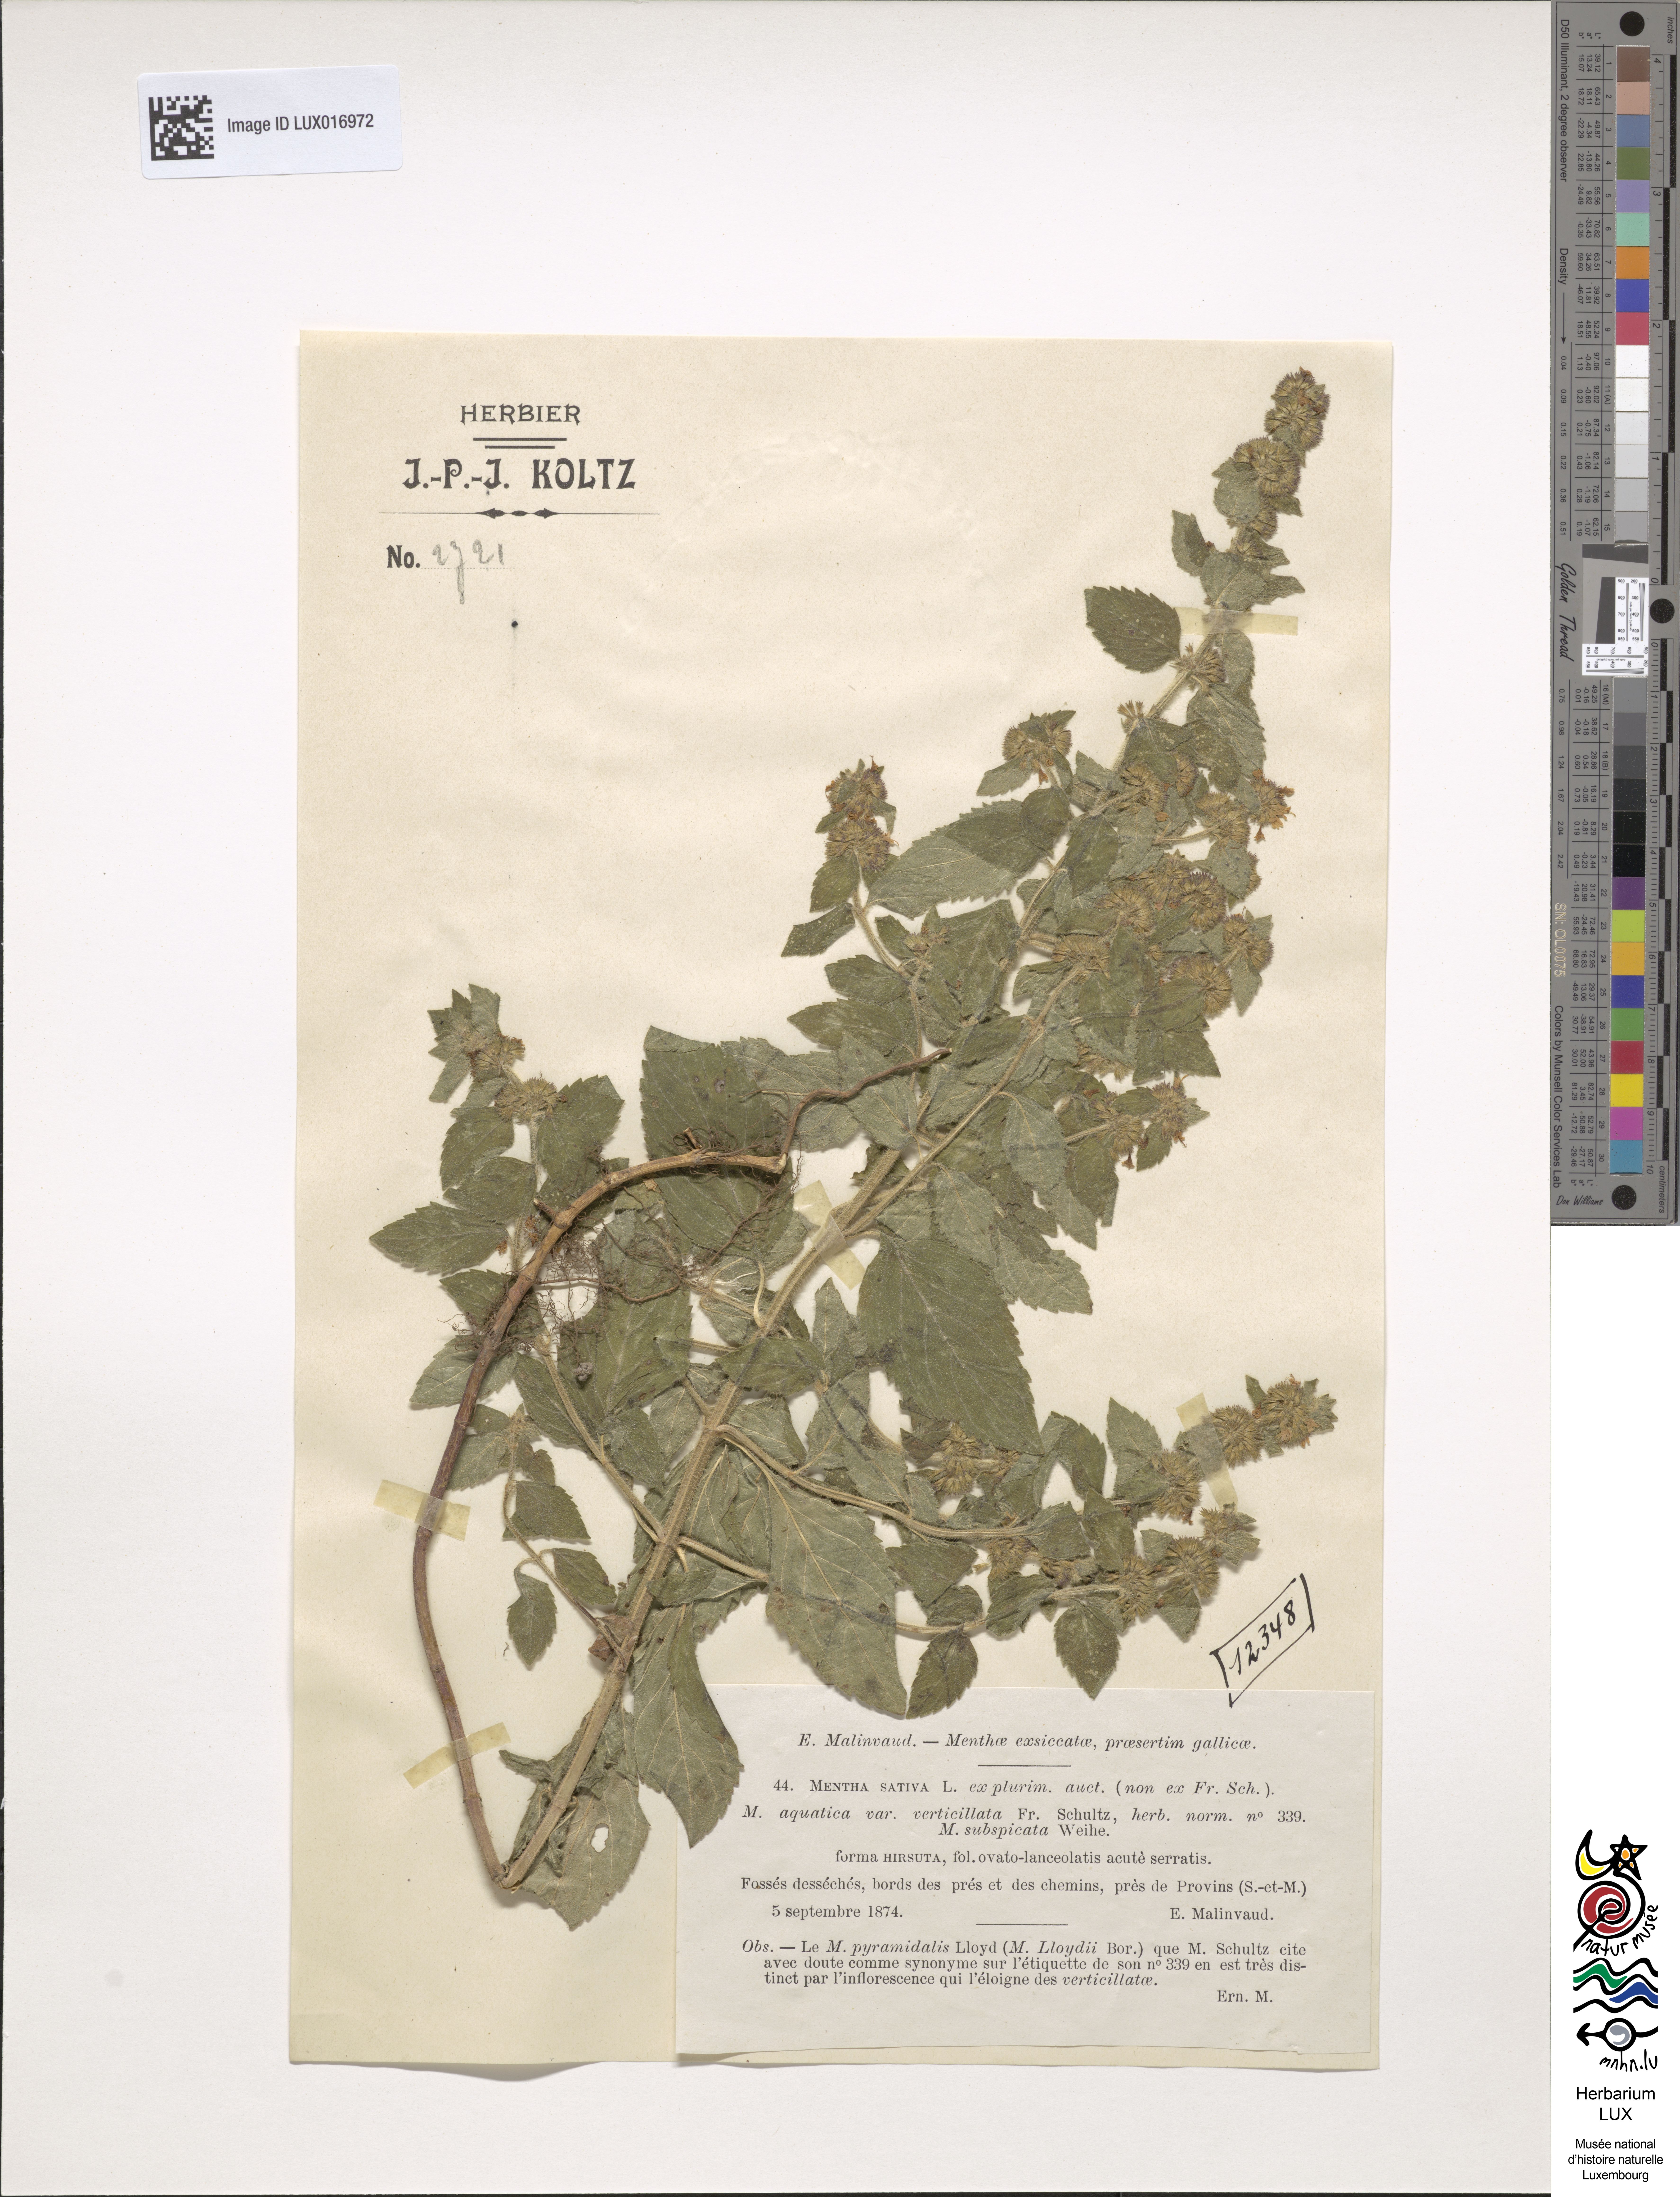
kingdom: Plantae
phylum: Tracheophyta
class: Magnoliopsida
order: Lamiales
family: Lamiaceae
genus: Mentha
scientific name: Mentha verticillata
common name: Mint
